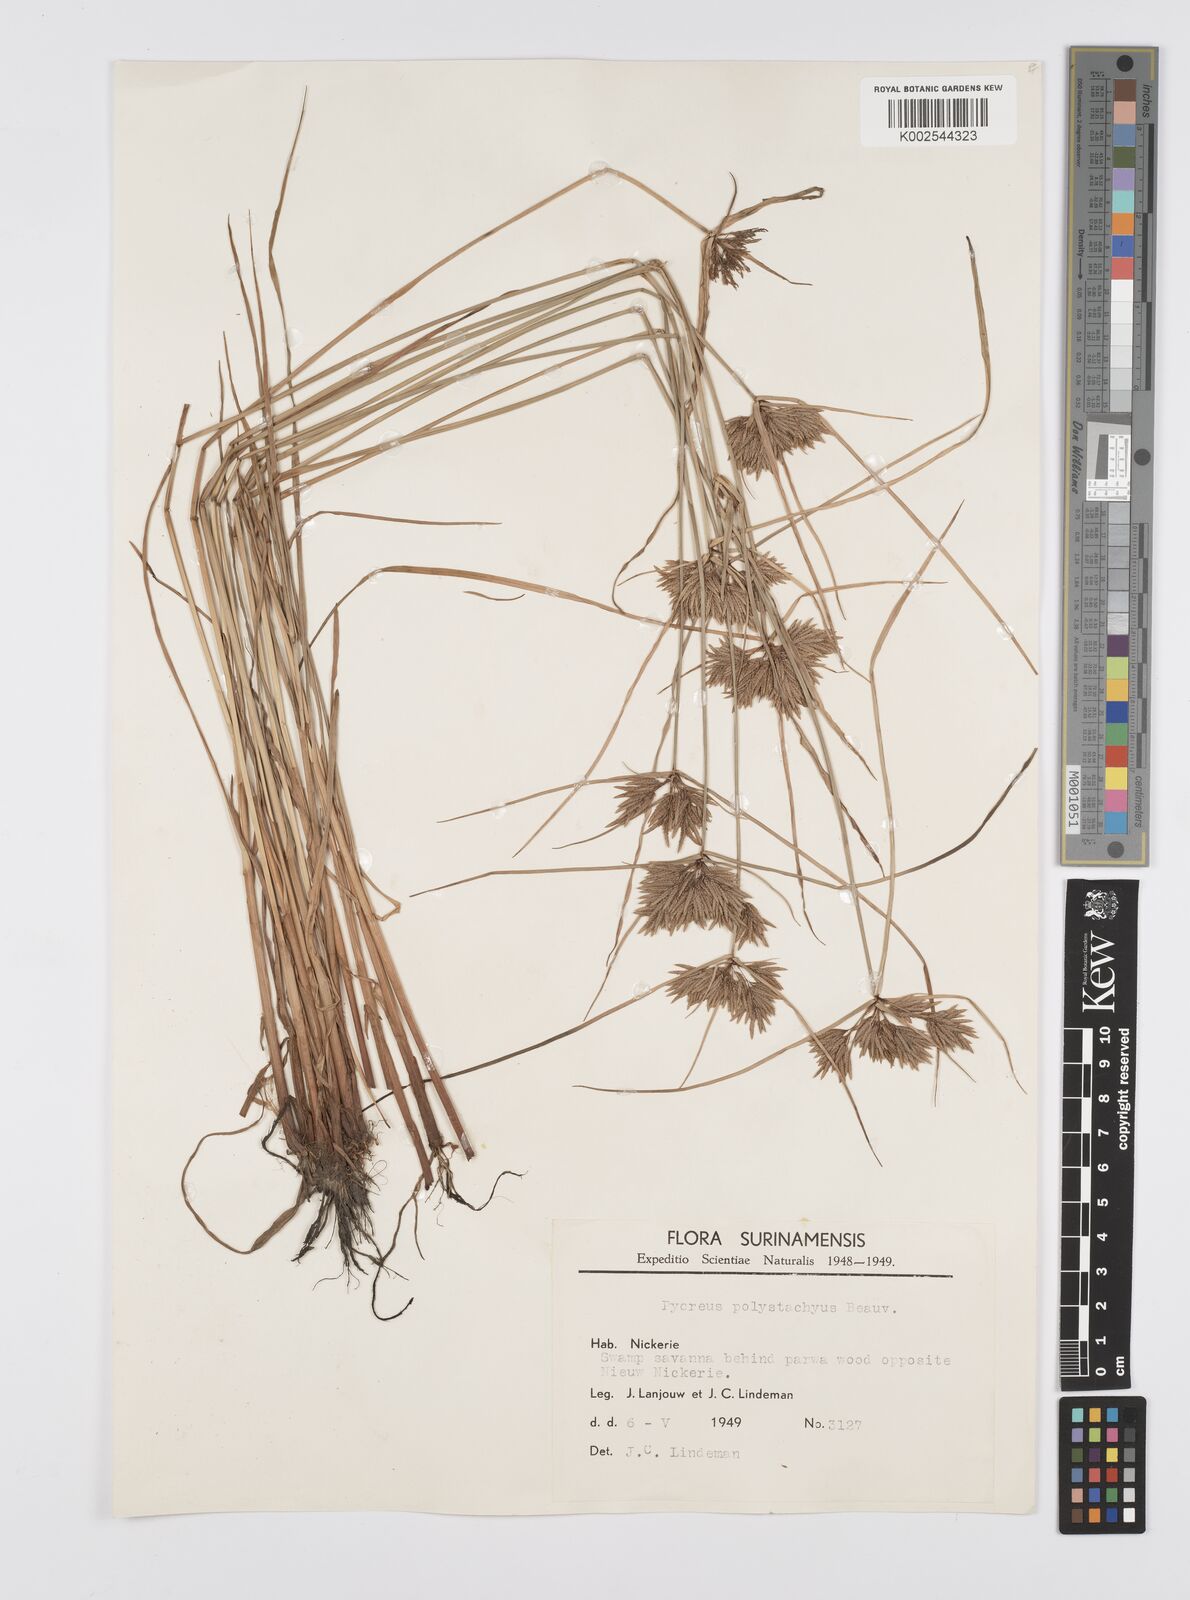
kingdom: Plantae
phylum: Tracheophyta
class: Liliopsida
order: Poales
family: Cyperaceae
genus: Cyperus
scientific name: Cyperus polystachyos
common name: Bunchy flat sedge
